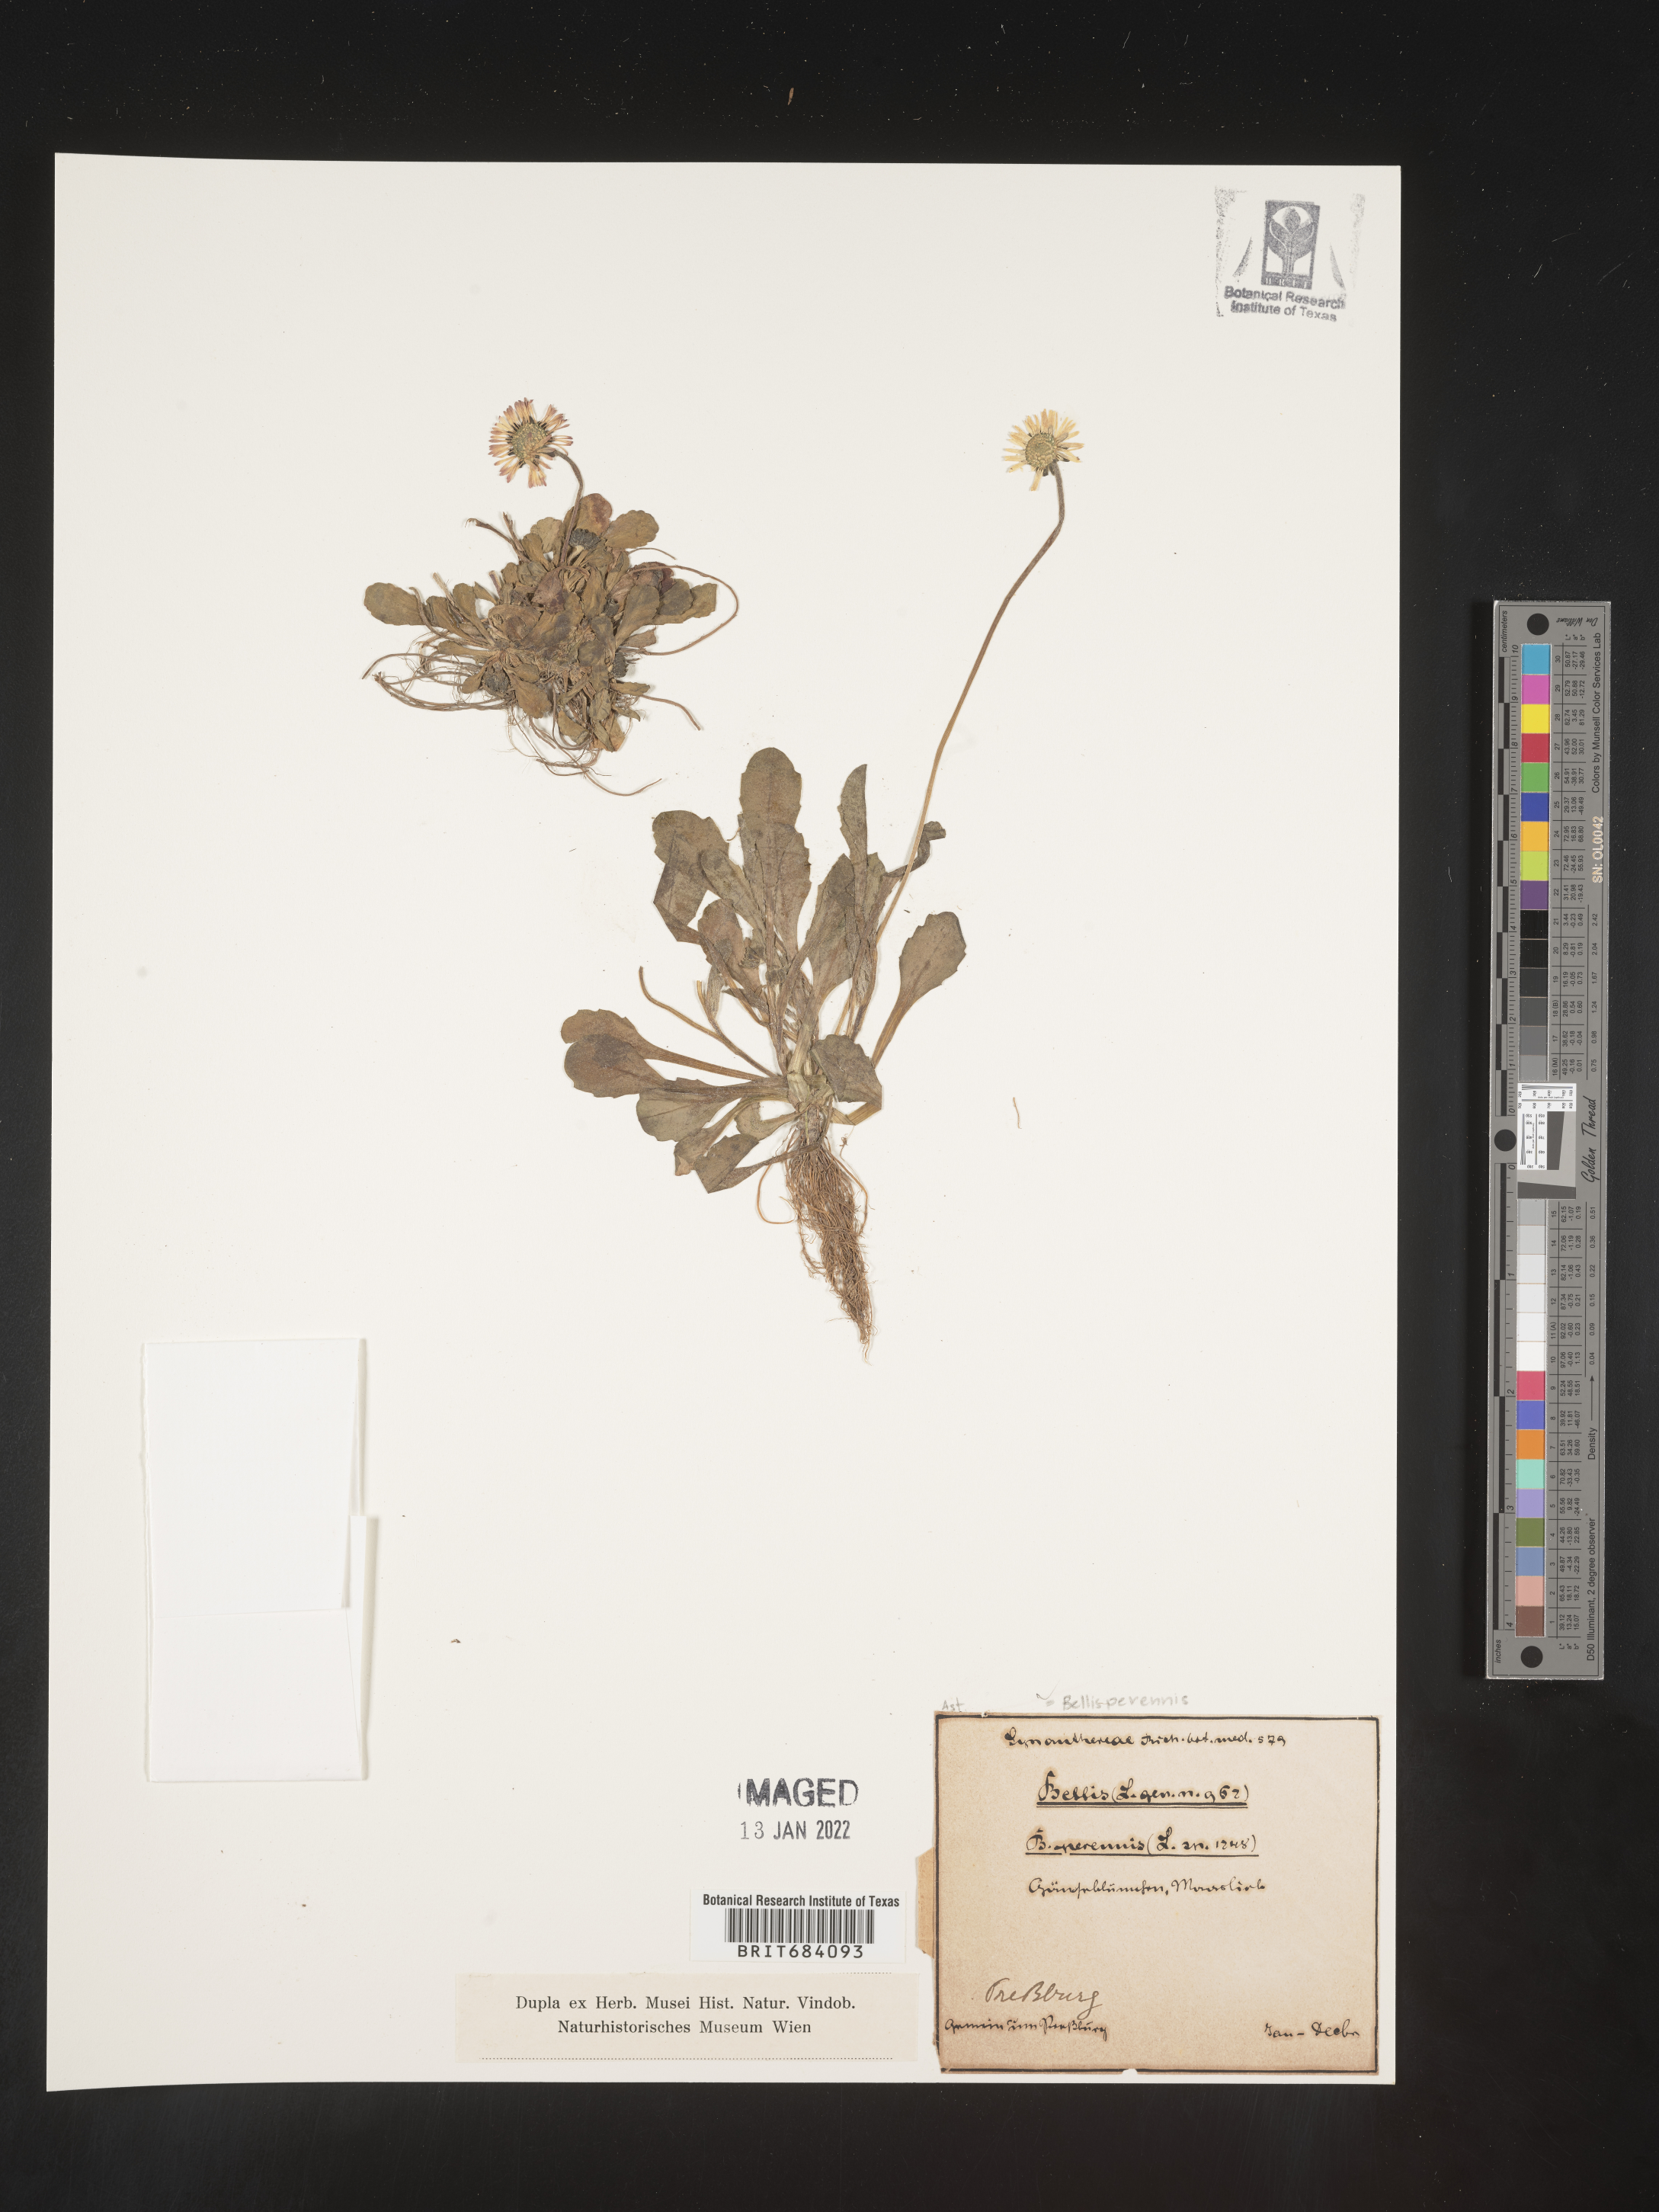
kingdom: Plantae
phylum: Tracheophyta
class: Magnoliopsida
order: Asterales
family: Asteraceae
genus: Bellis
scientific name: Bellis
